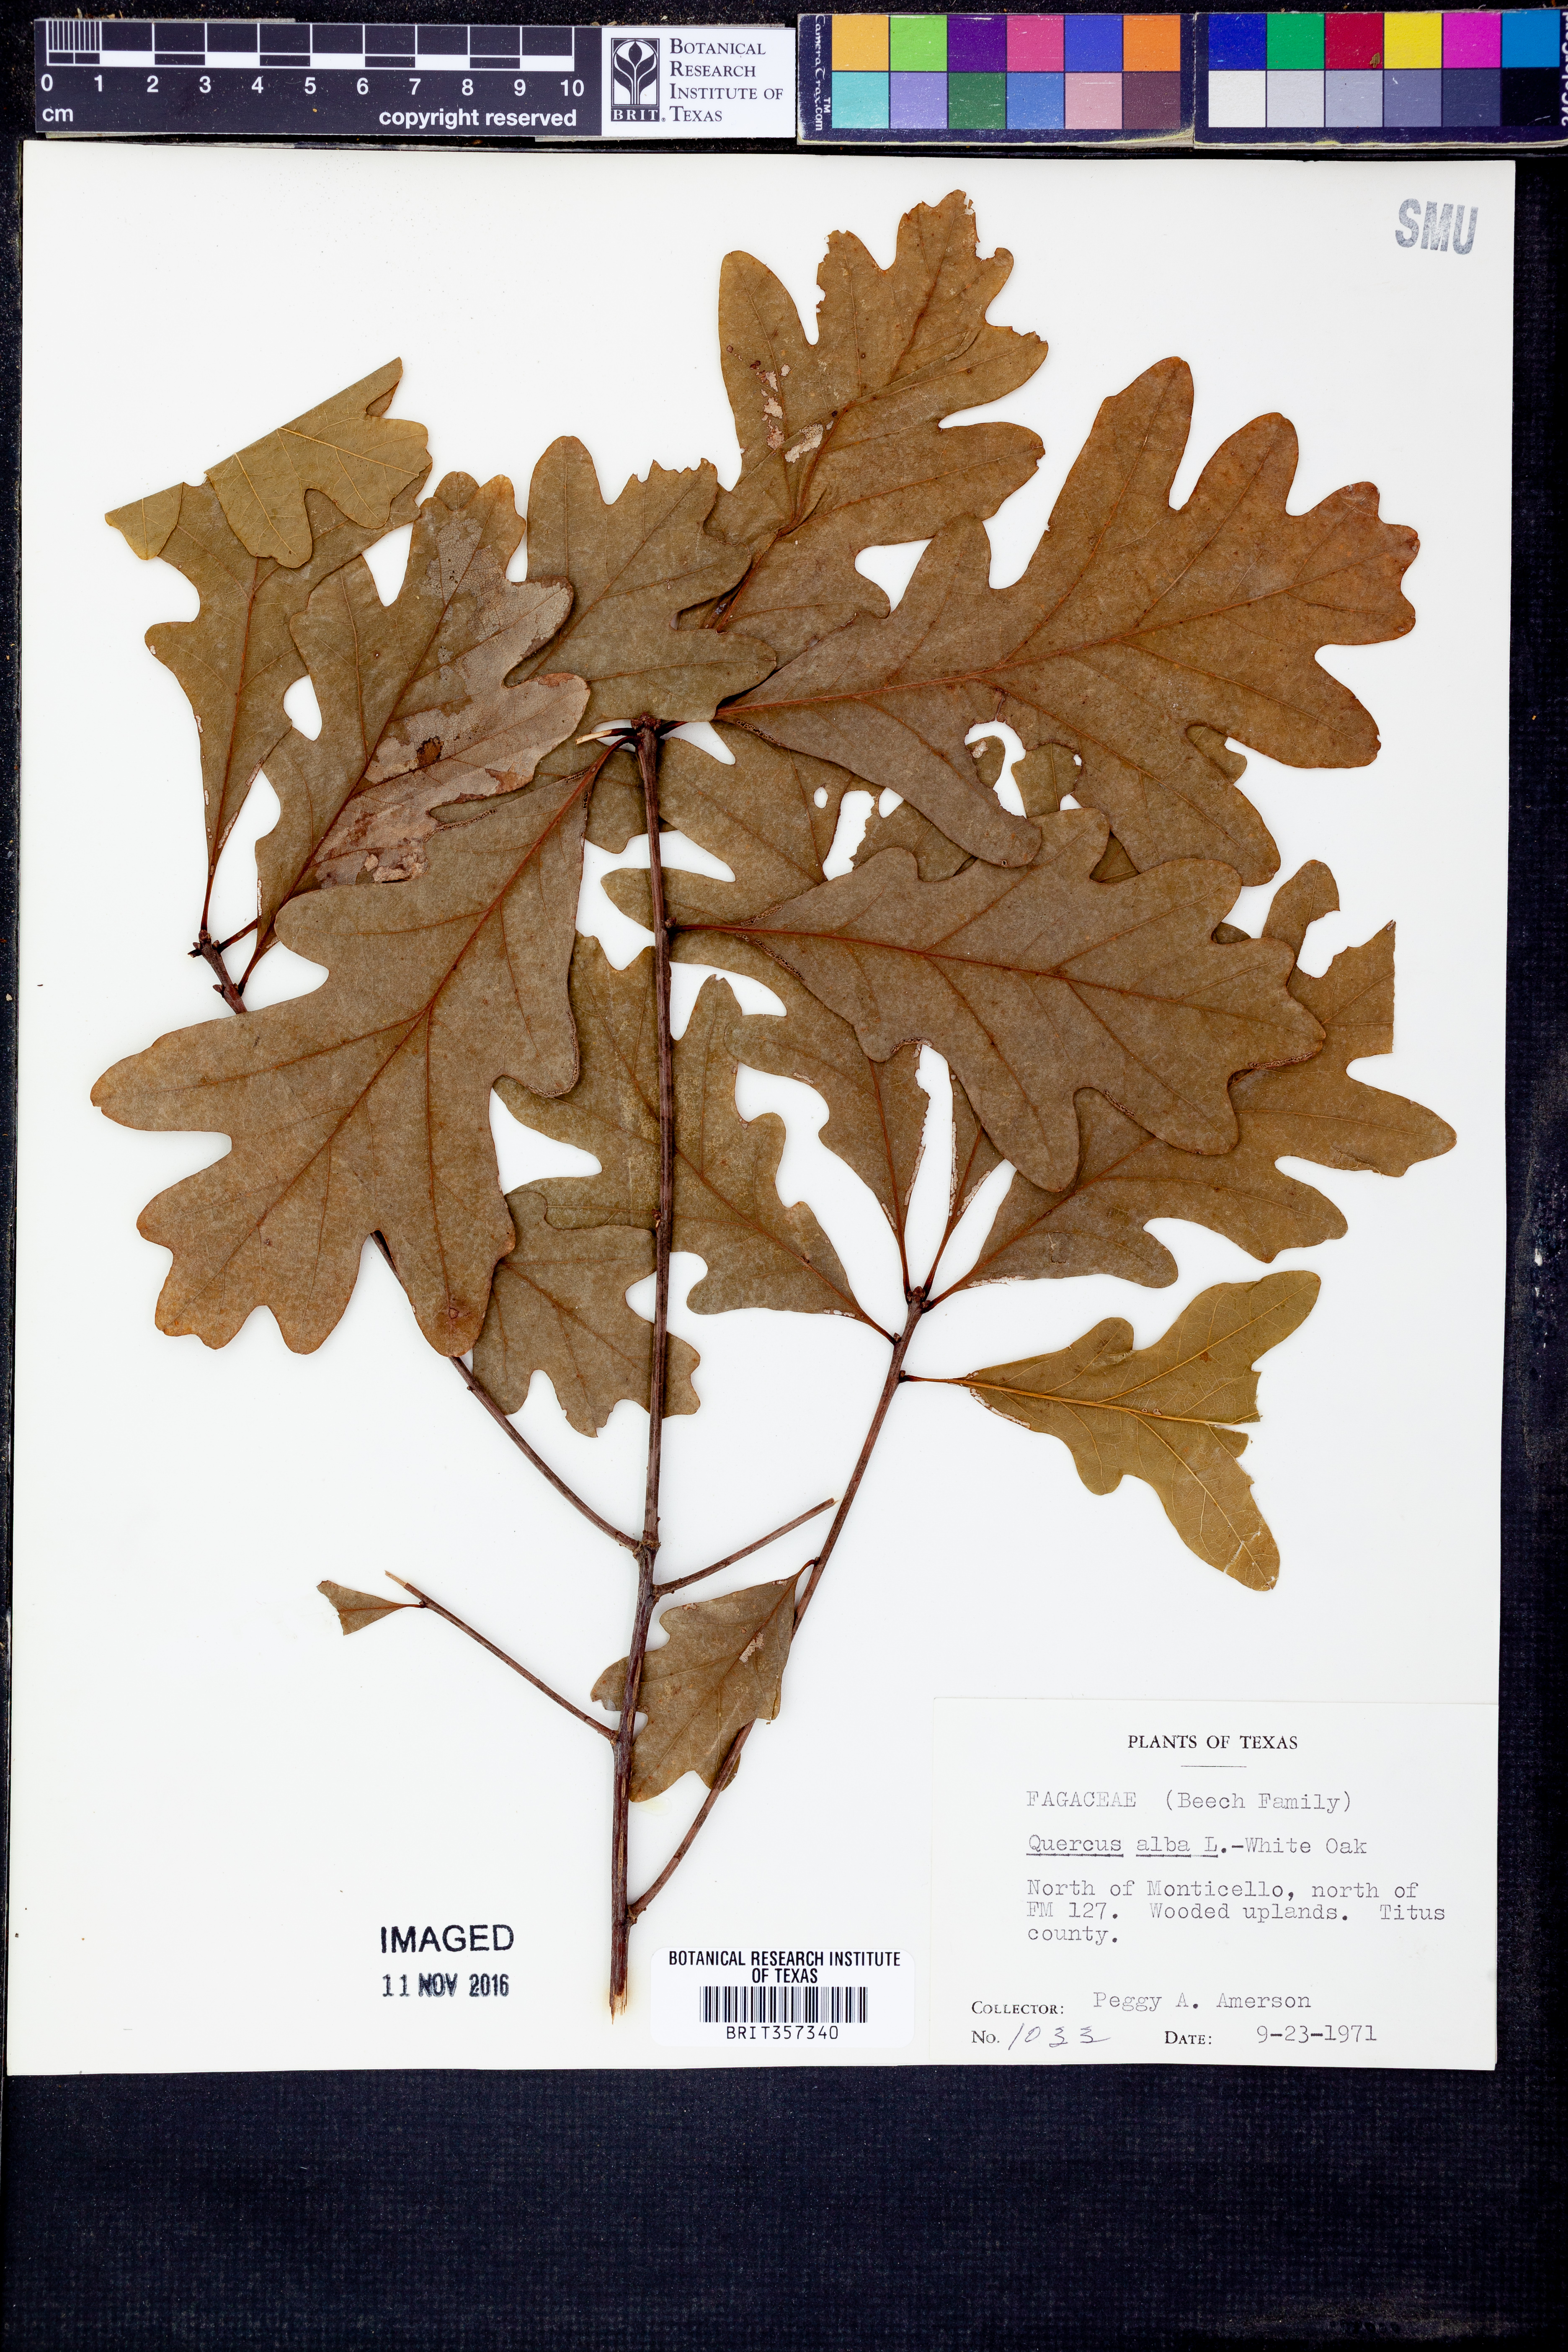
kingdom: Plantae
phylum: Tracheophyta
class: Magnoliopsida
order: Fagales
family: Fagaceae
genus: Quercus
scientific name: Quercus alba
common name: White oak
